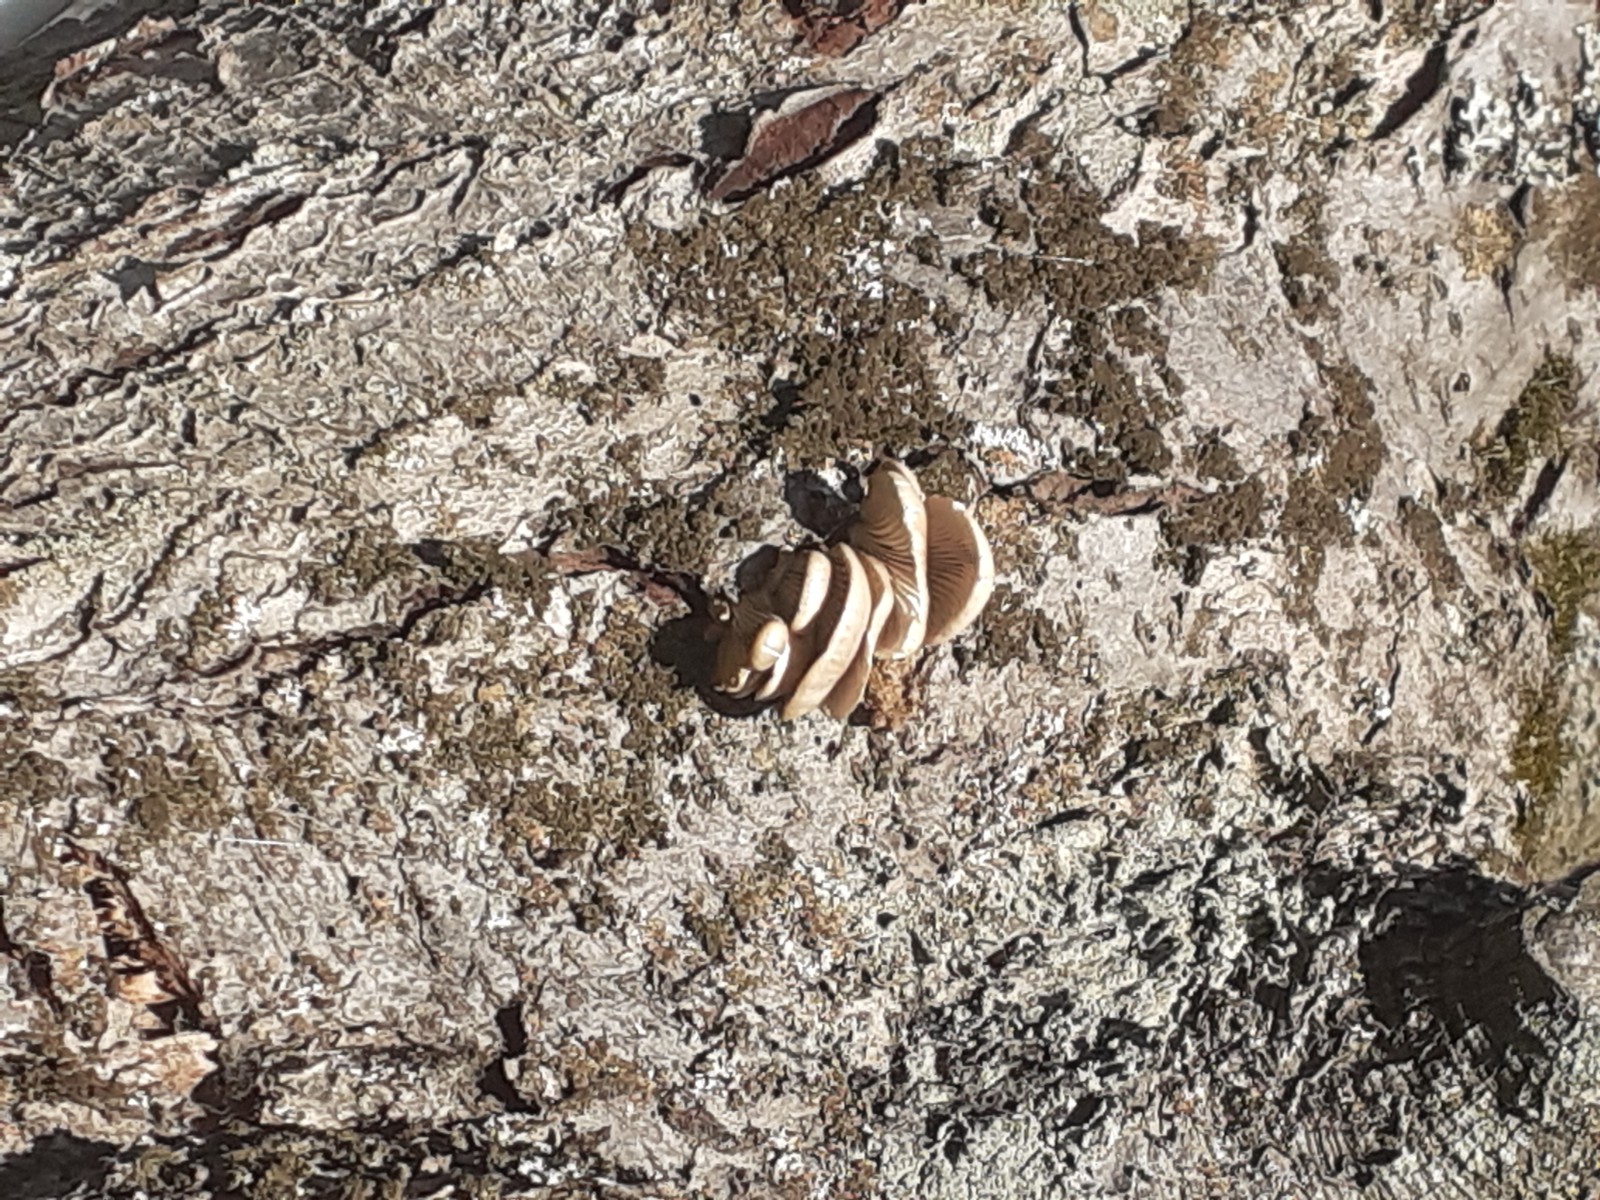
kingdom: Fungi
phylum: Basidiomycota
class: Agaricomycetes
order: Agaricales
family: Pleurotaceae
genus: Pleurotus
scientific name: Pleurotus pulmonarius
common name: sommer-østershat
